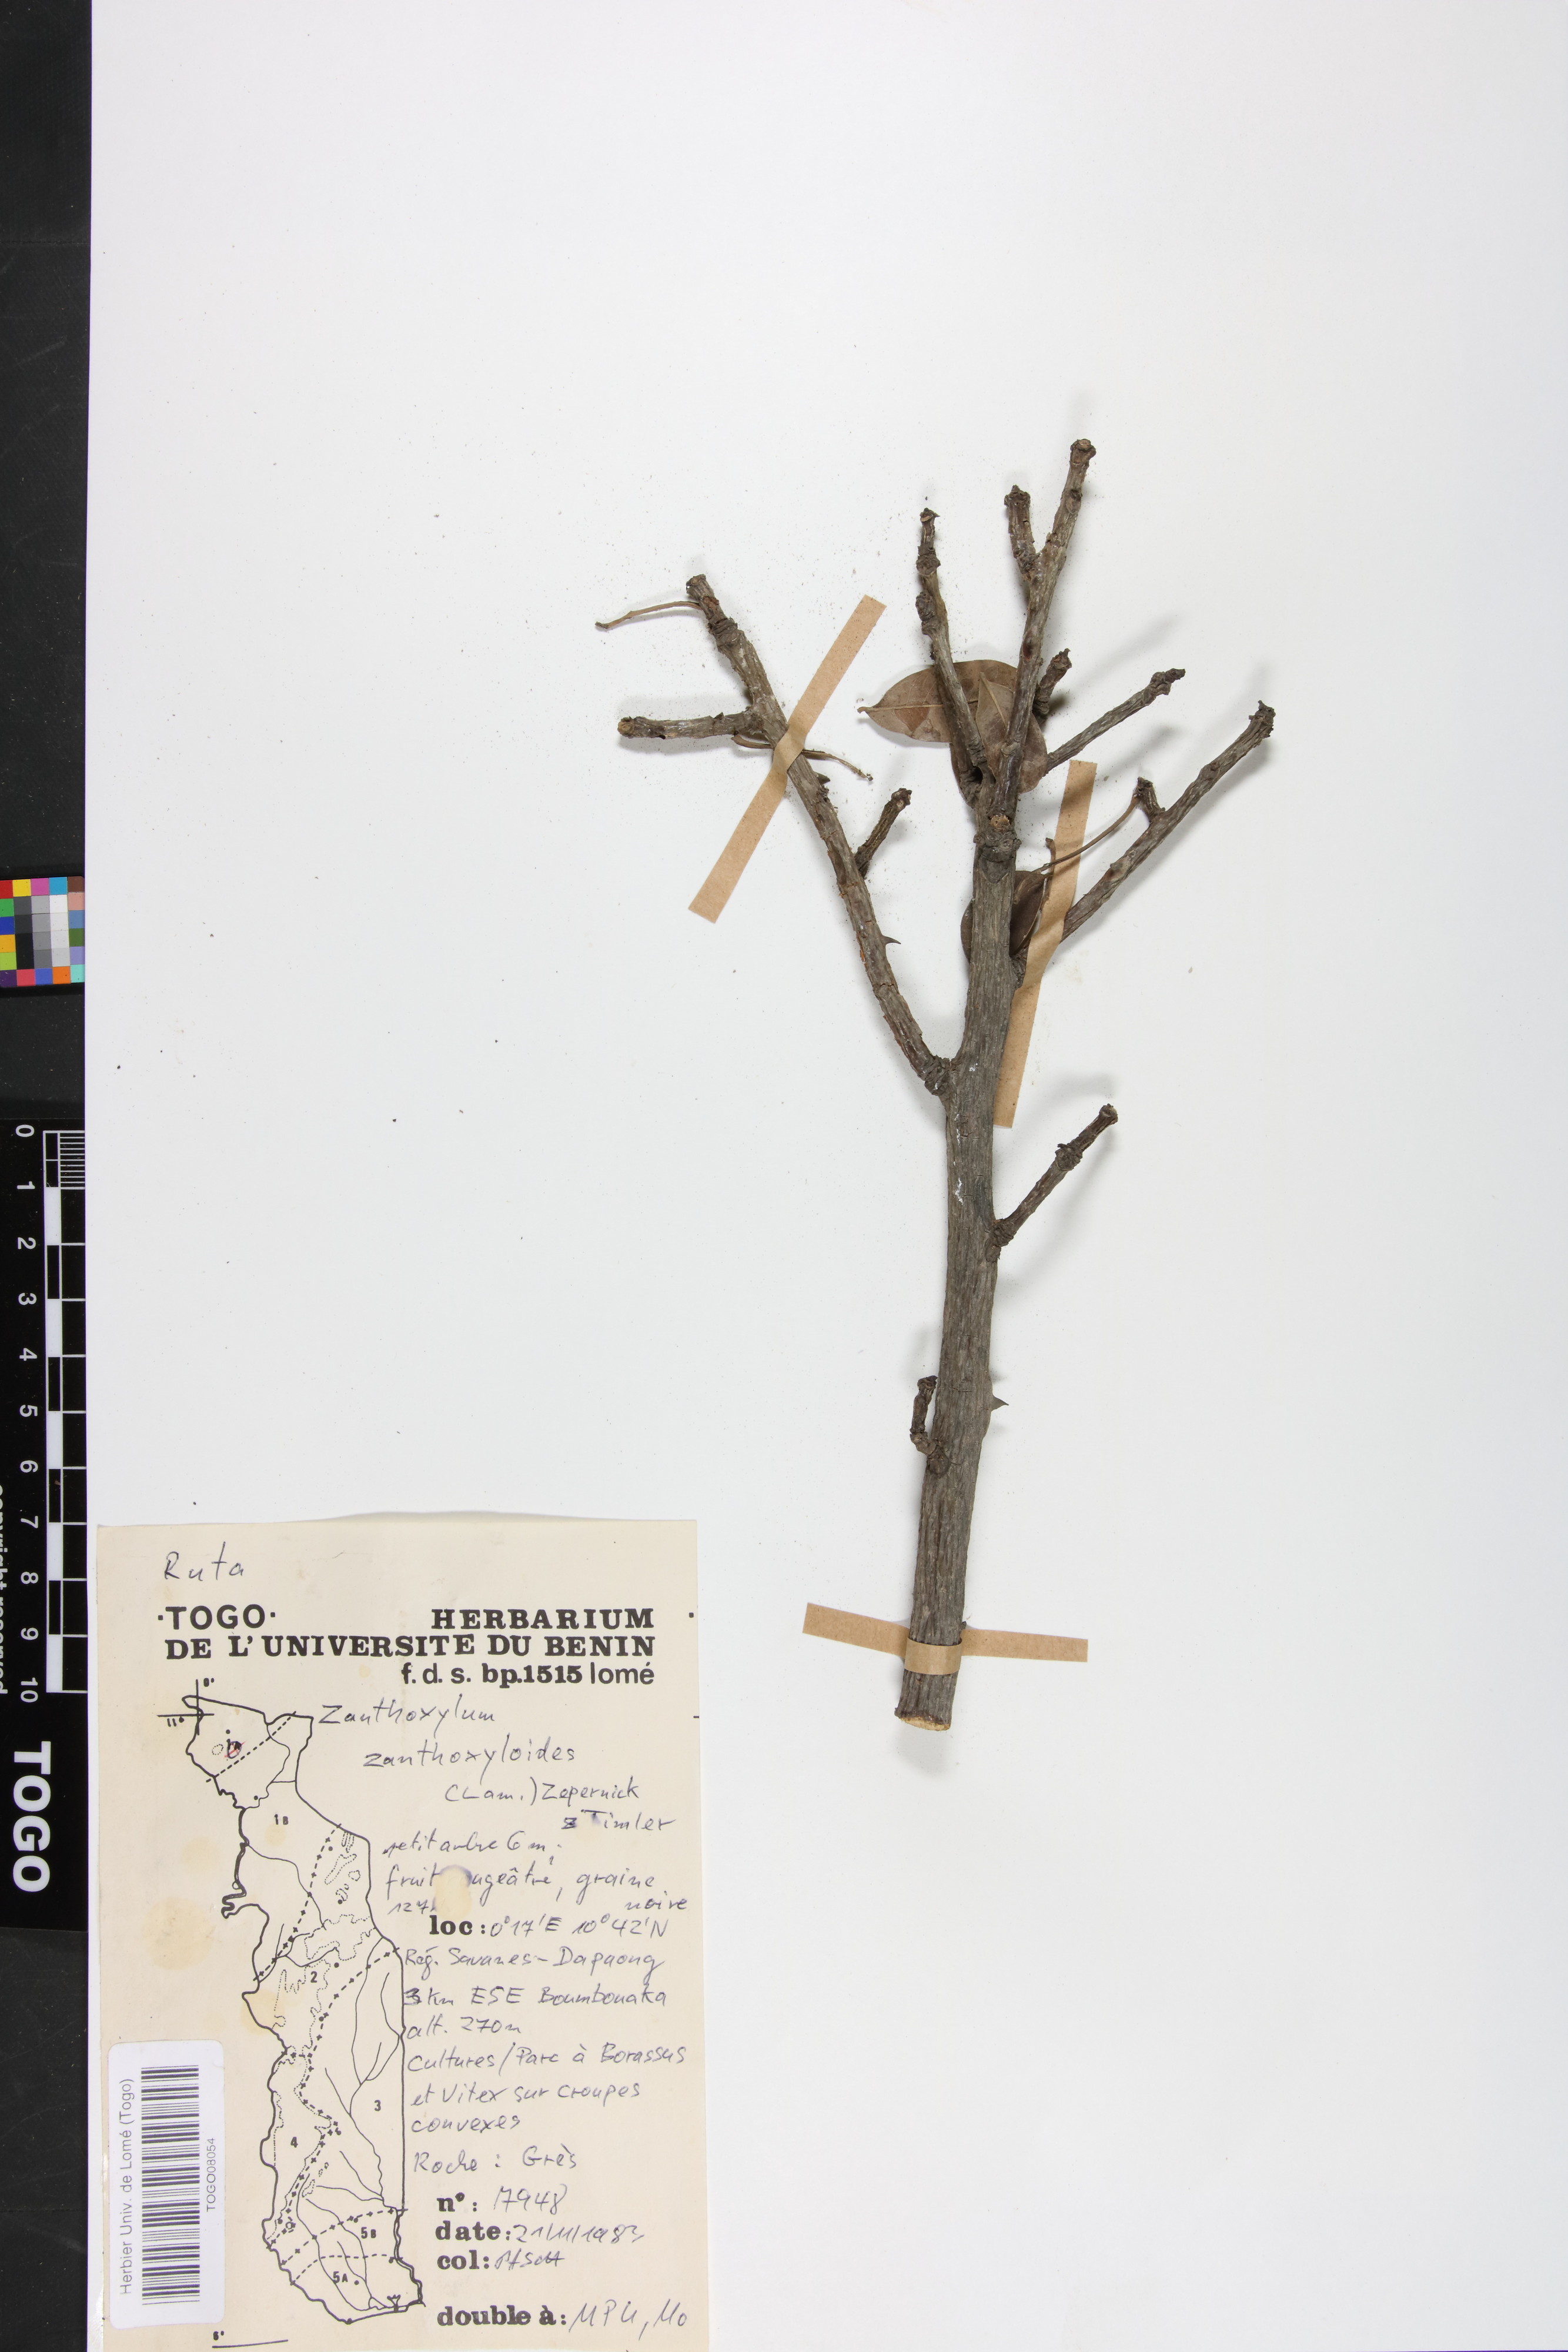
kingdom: Plantae
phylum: Tracheophyta
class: Magnoliopsida
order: Sapindales
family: Rutaceae
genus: Zanthoxylum
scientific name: Zanthoxylum zanthoxyloides
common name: Senegal prickly-ash
